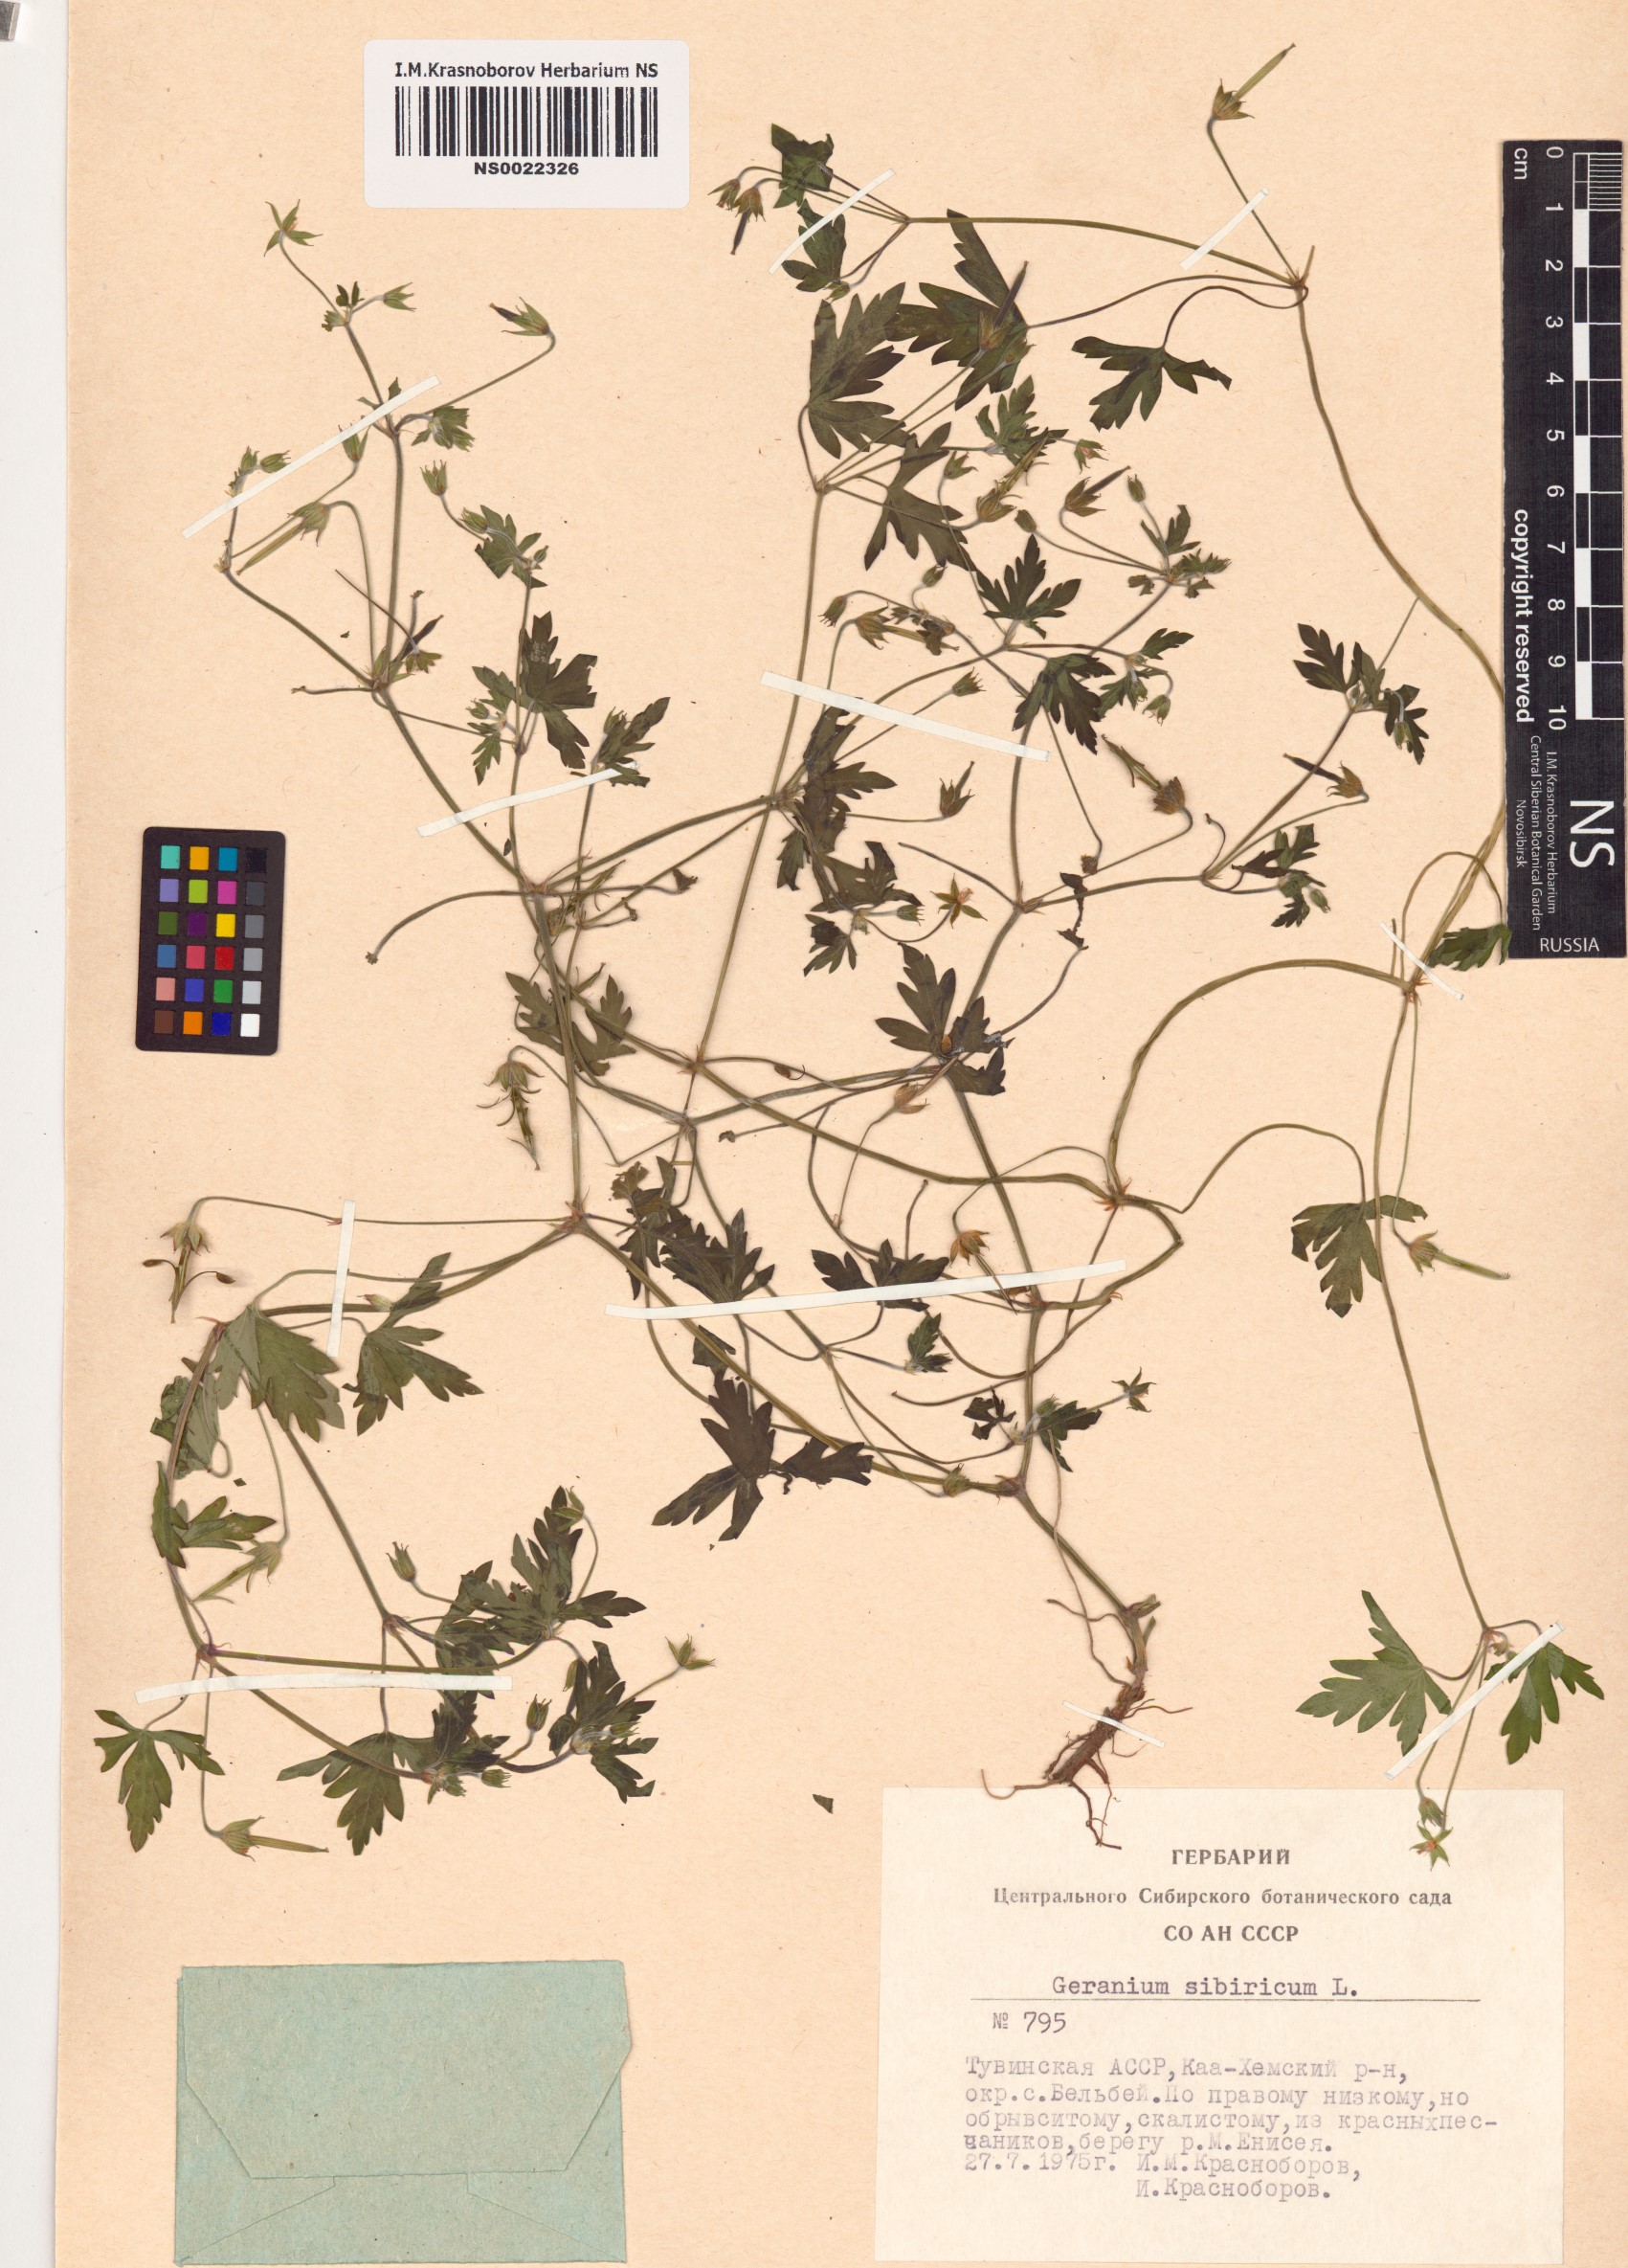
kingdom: Plantae
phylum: Tracheophyta
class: Magnoliopsida
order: Geraniales
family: Geraniaceae
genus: Geranium
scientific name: Geranium sibiricum
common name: Siberian crane's-bill
